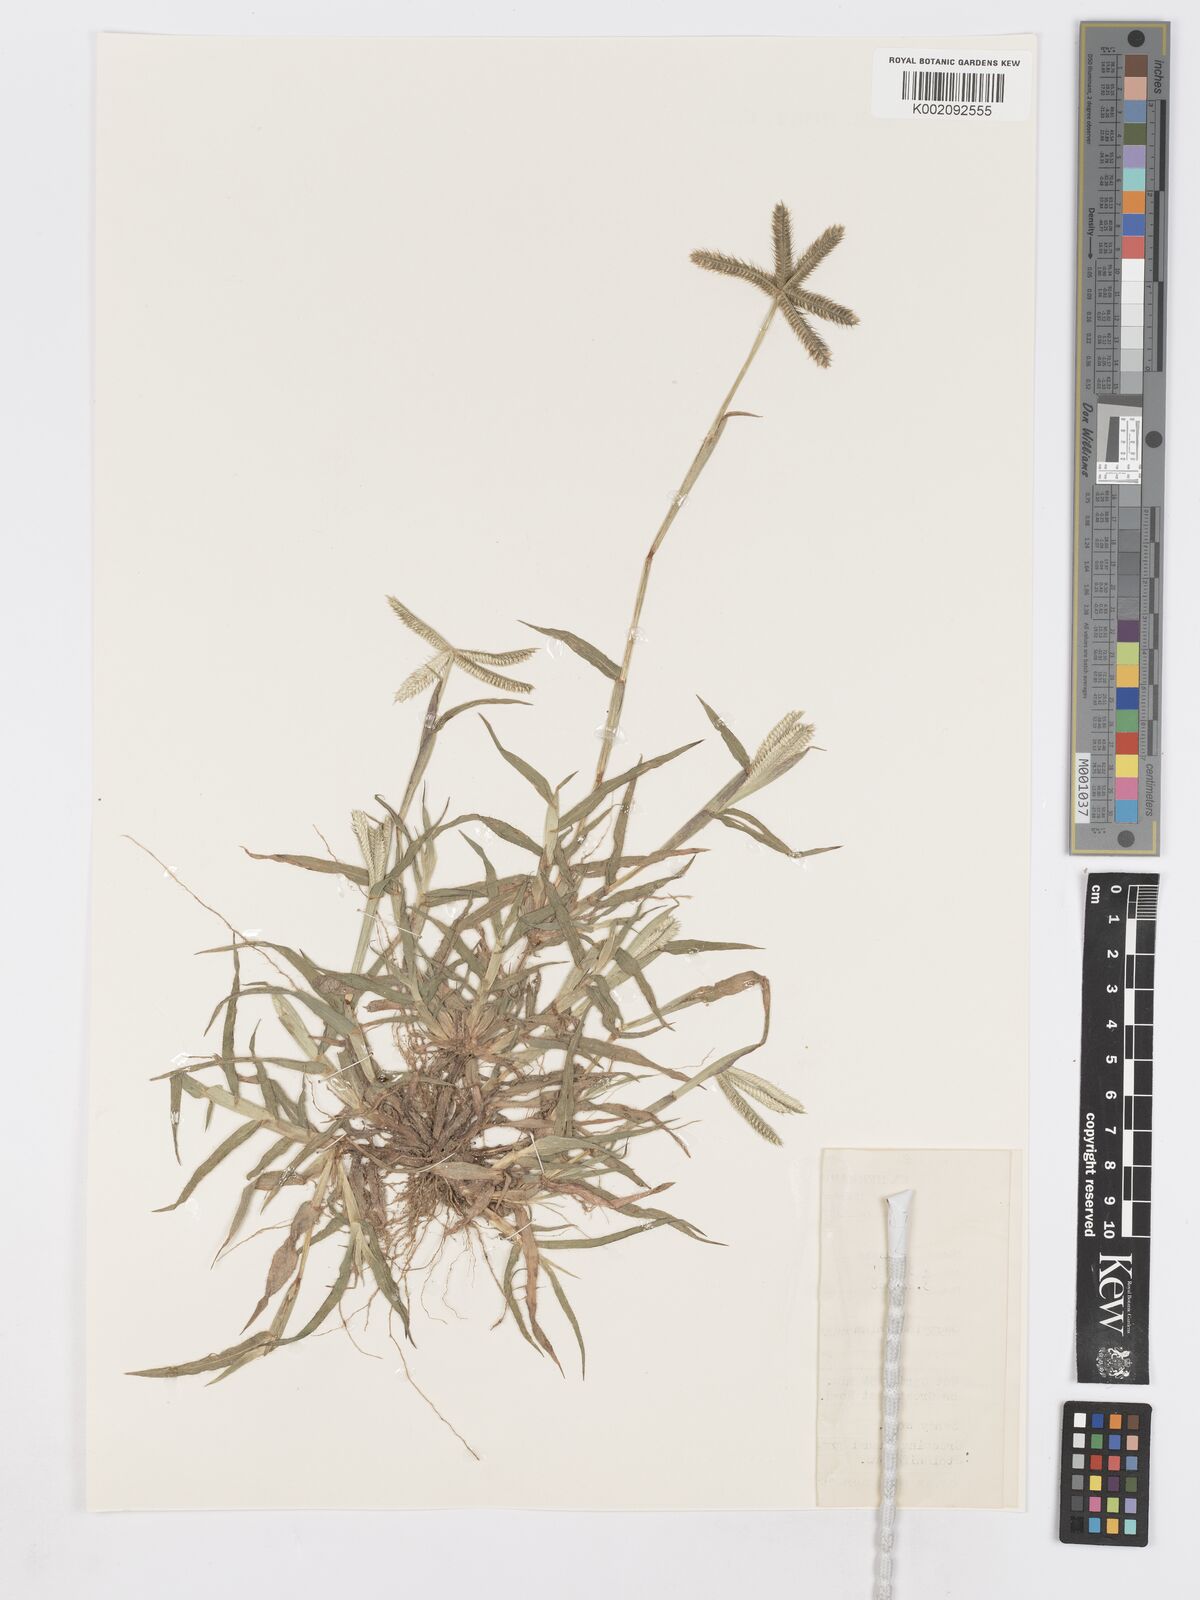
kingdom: Plantae
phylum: Tracheophyta
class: Liliopsida
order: Poales
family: Poaceae
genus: Dactyloctenium
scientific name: Dactyloctenium aegyptium
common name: Egyptian grass
